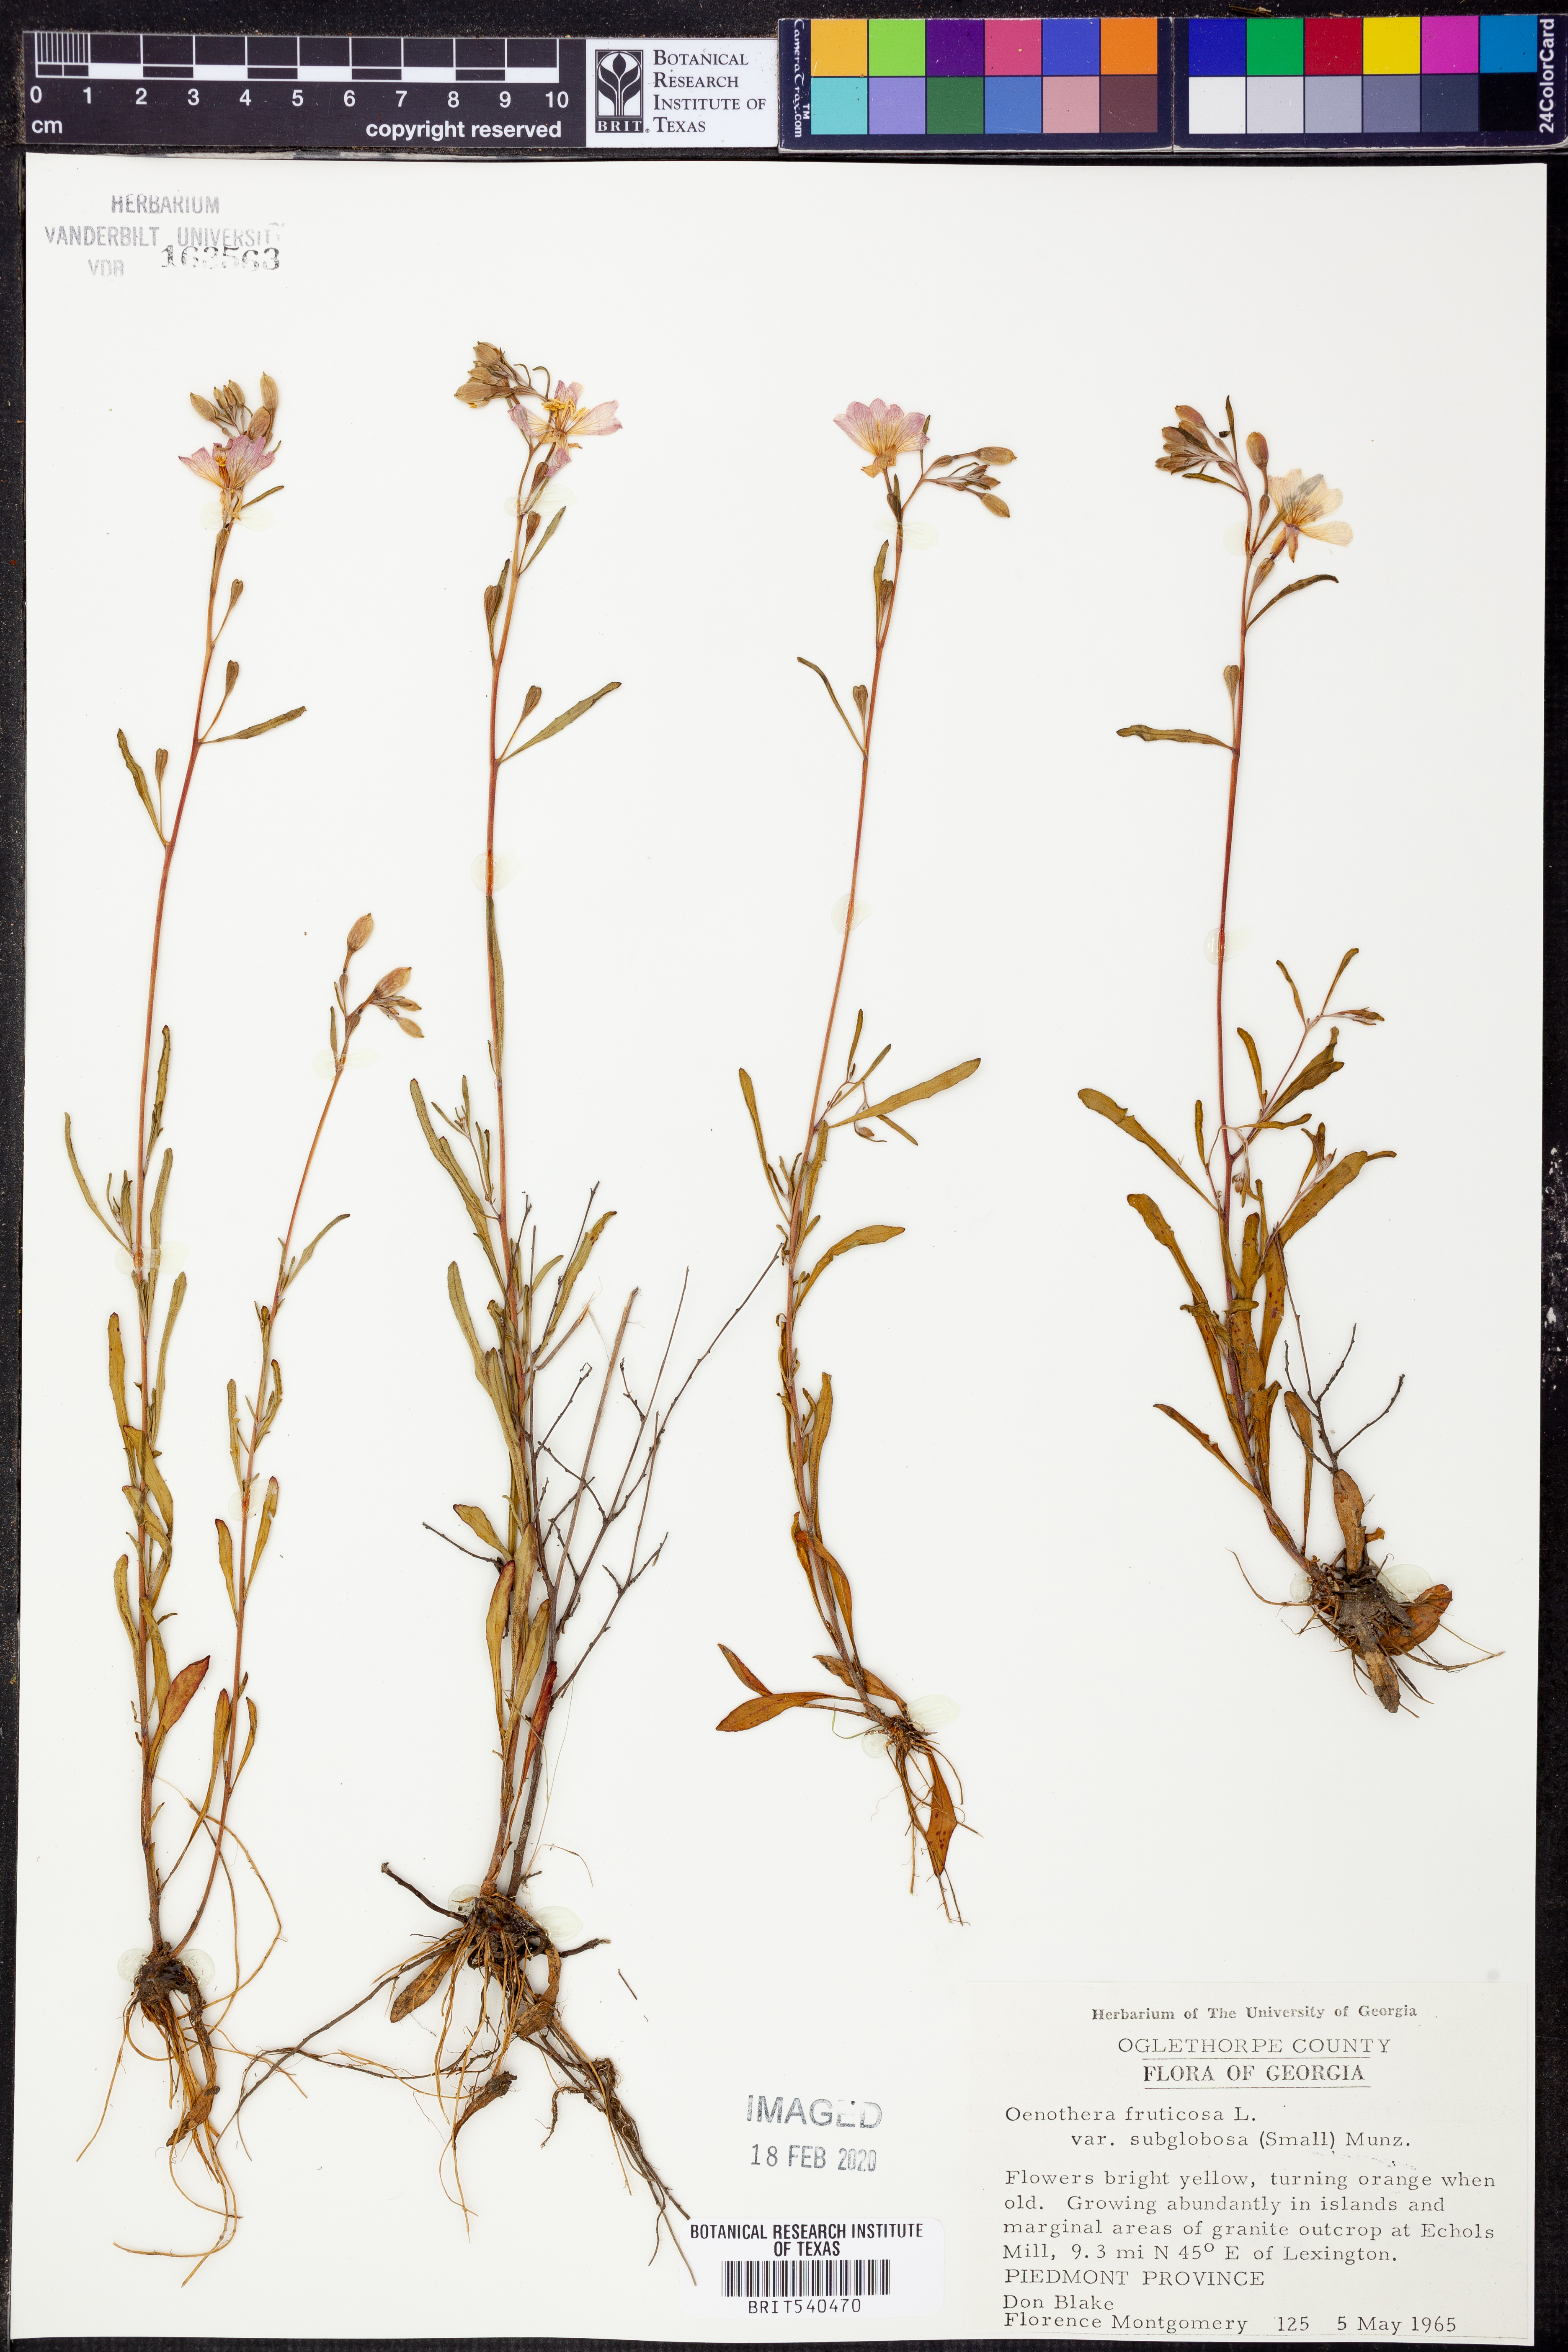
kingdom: Plantae
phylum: Tracheophyta
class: Magnoliopsida
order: Myrtales
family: Onagraceae
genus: Oenothera
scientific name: Oenothera fruticosa
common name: Southern sundrops
